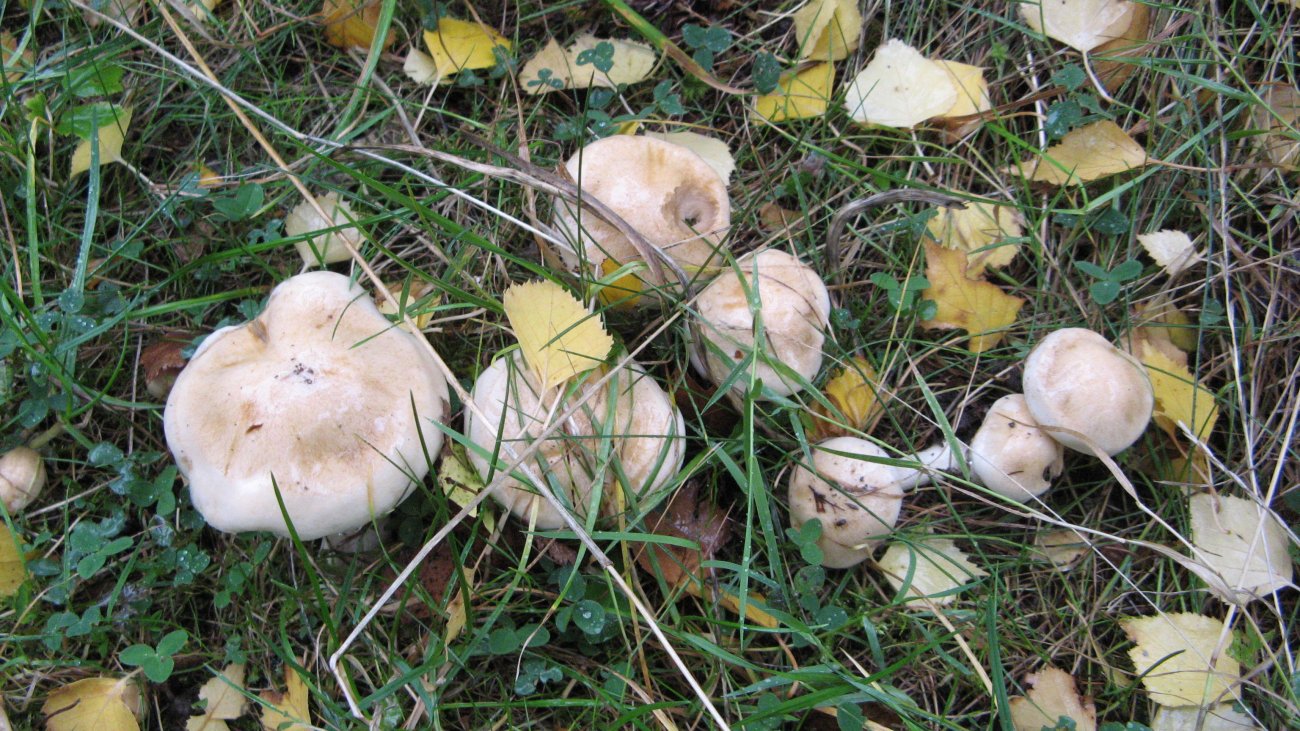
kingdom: Fungi
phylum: Basidiomycota
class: Agaricomycetes
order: Agaricales
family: Hymenogastraceae
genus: Hebeloma
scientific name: Hebeloma crustuliniforme
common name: almindelig tåreblad
